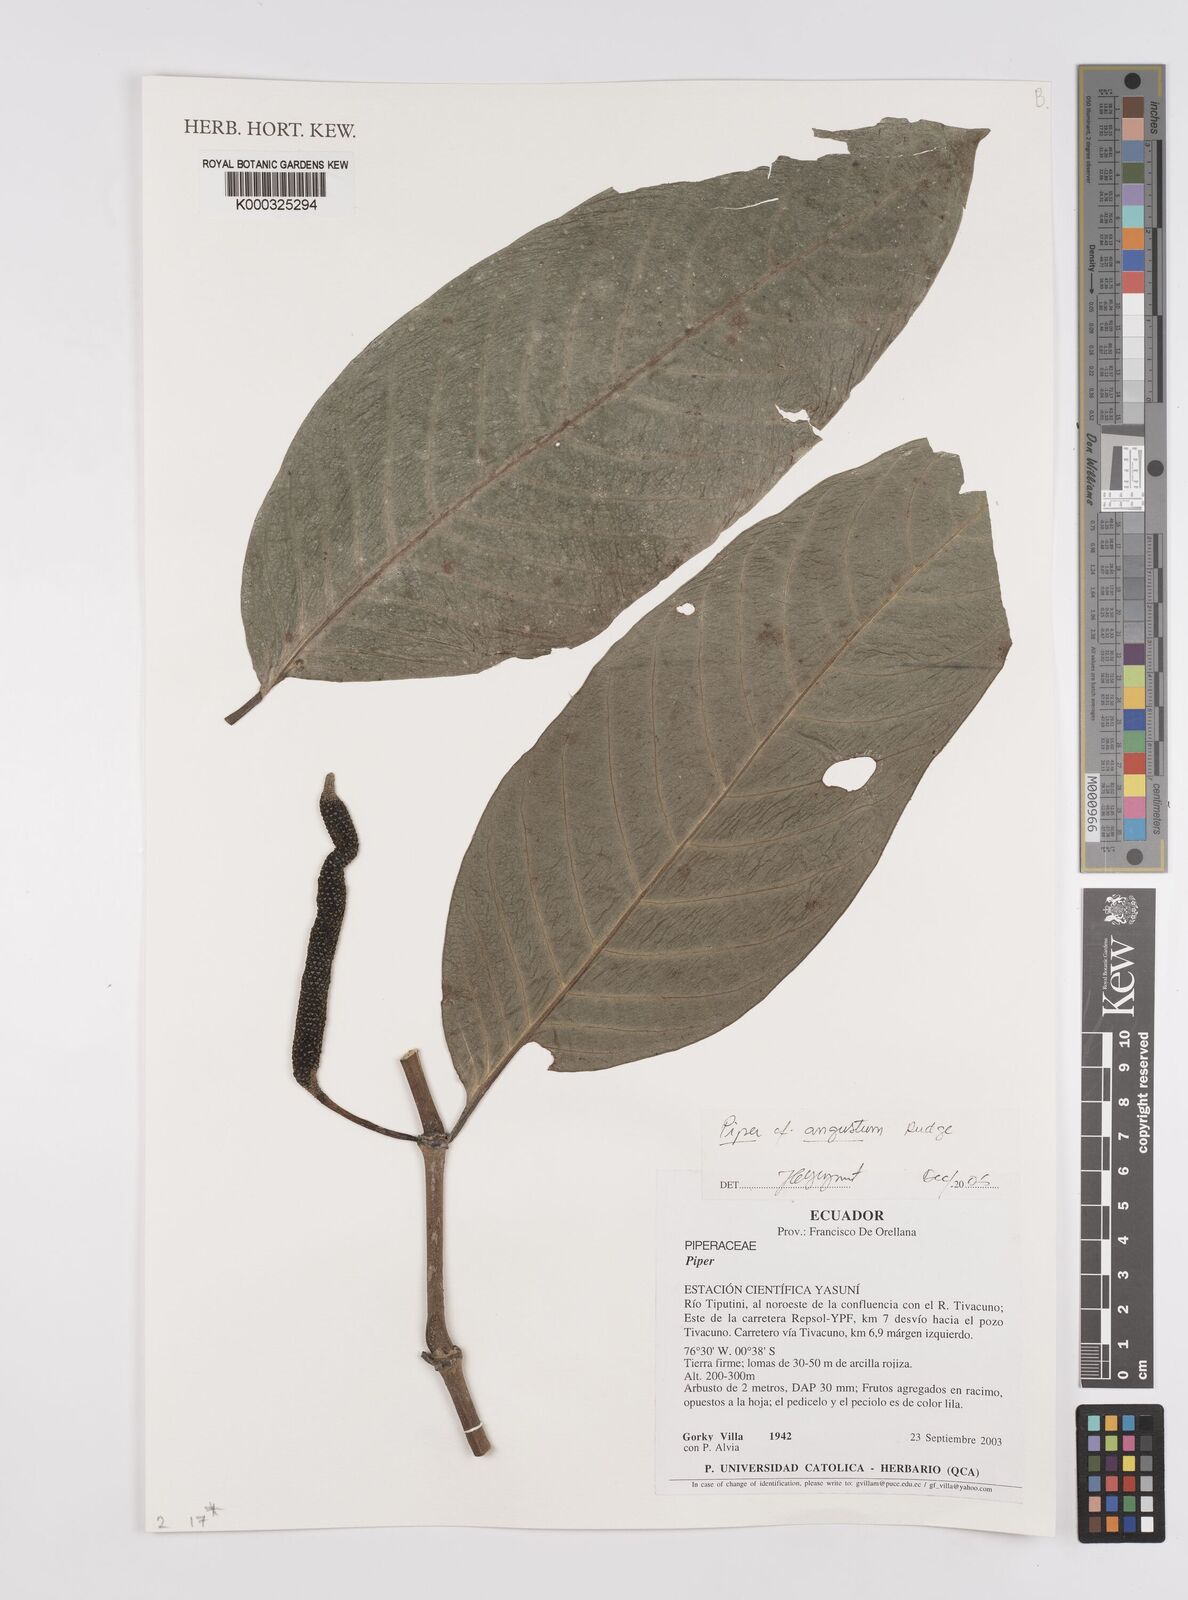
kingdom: Plantae
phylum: Tracheophyta
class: Magnoliopsida
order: Piperales
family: Piperaceae
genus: Piper
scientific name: Piper
